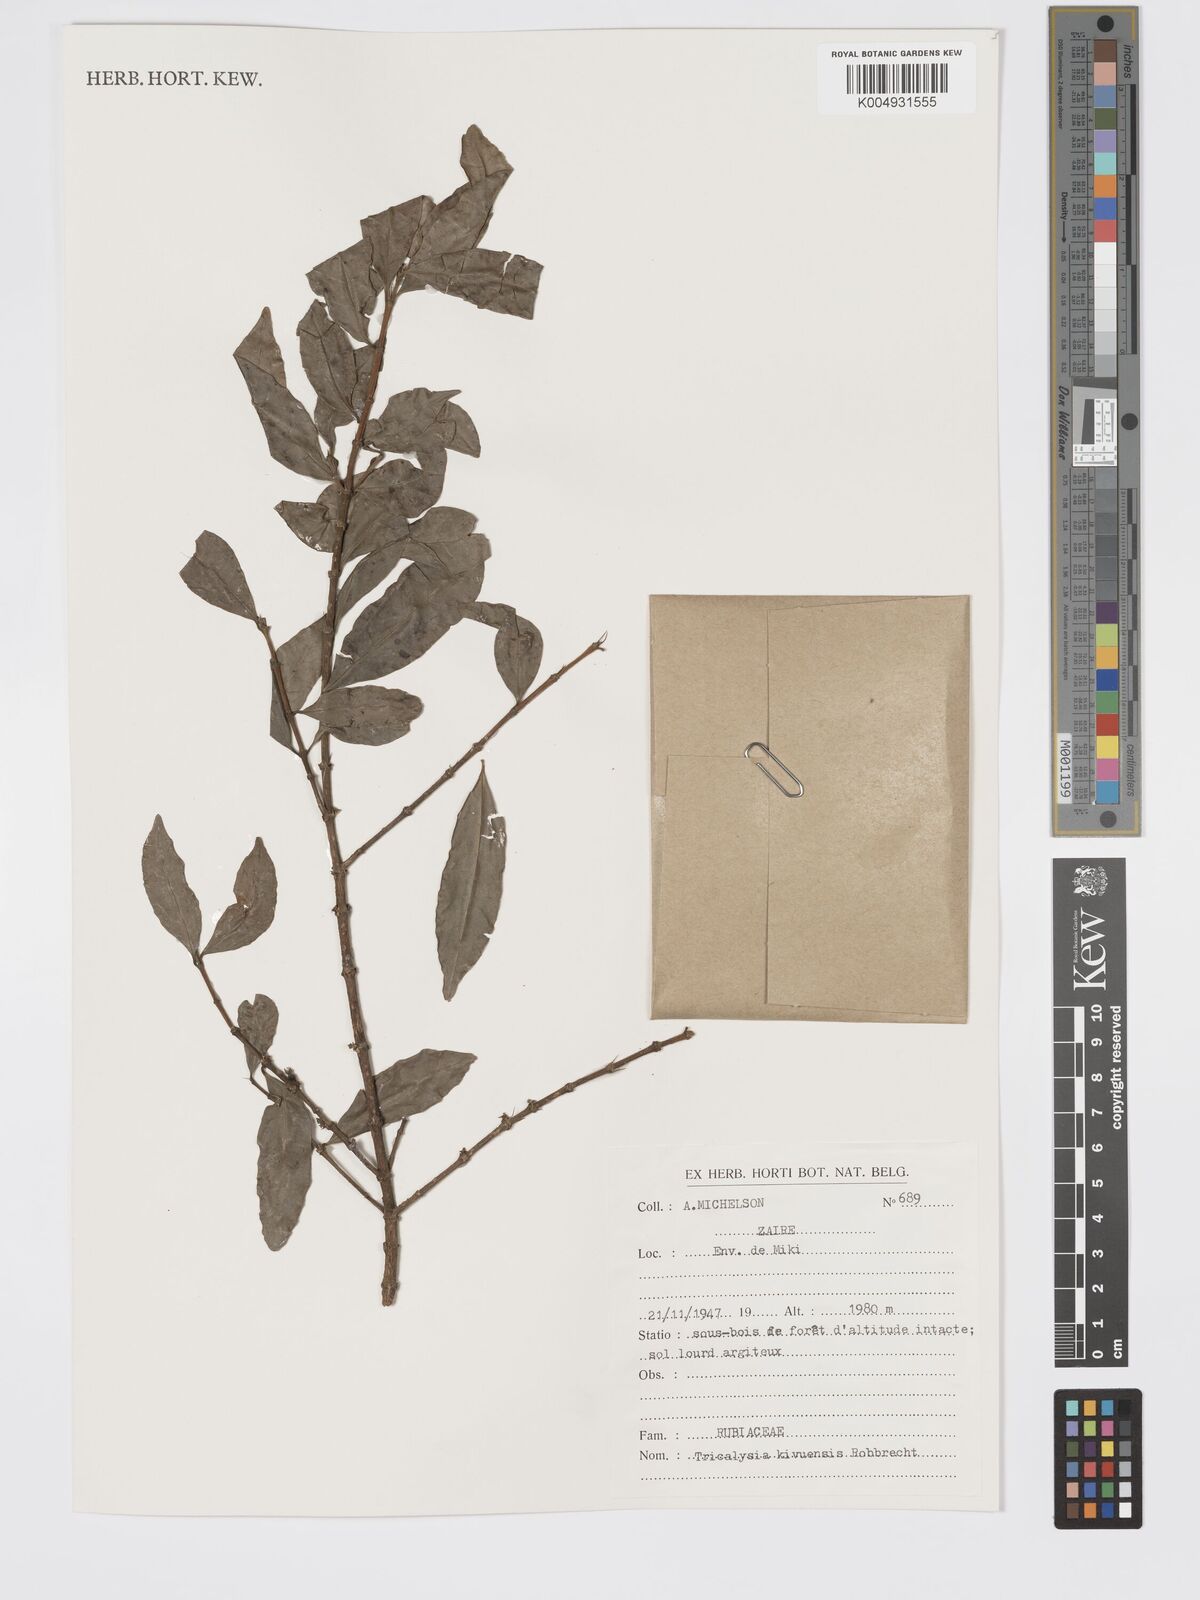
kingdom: Plantae
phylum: Tracheophyta
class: Magnoliopsida
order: Gentianales
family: Rubiaceae
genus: Tricalysia
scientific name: Tricalysia kivuensis
